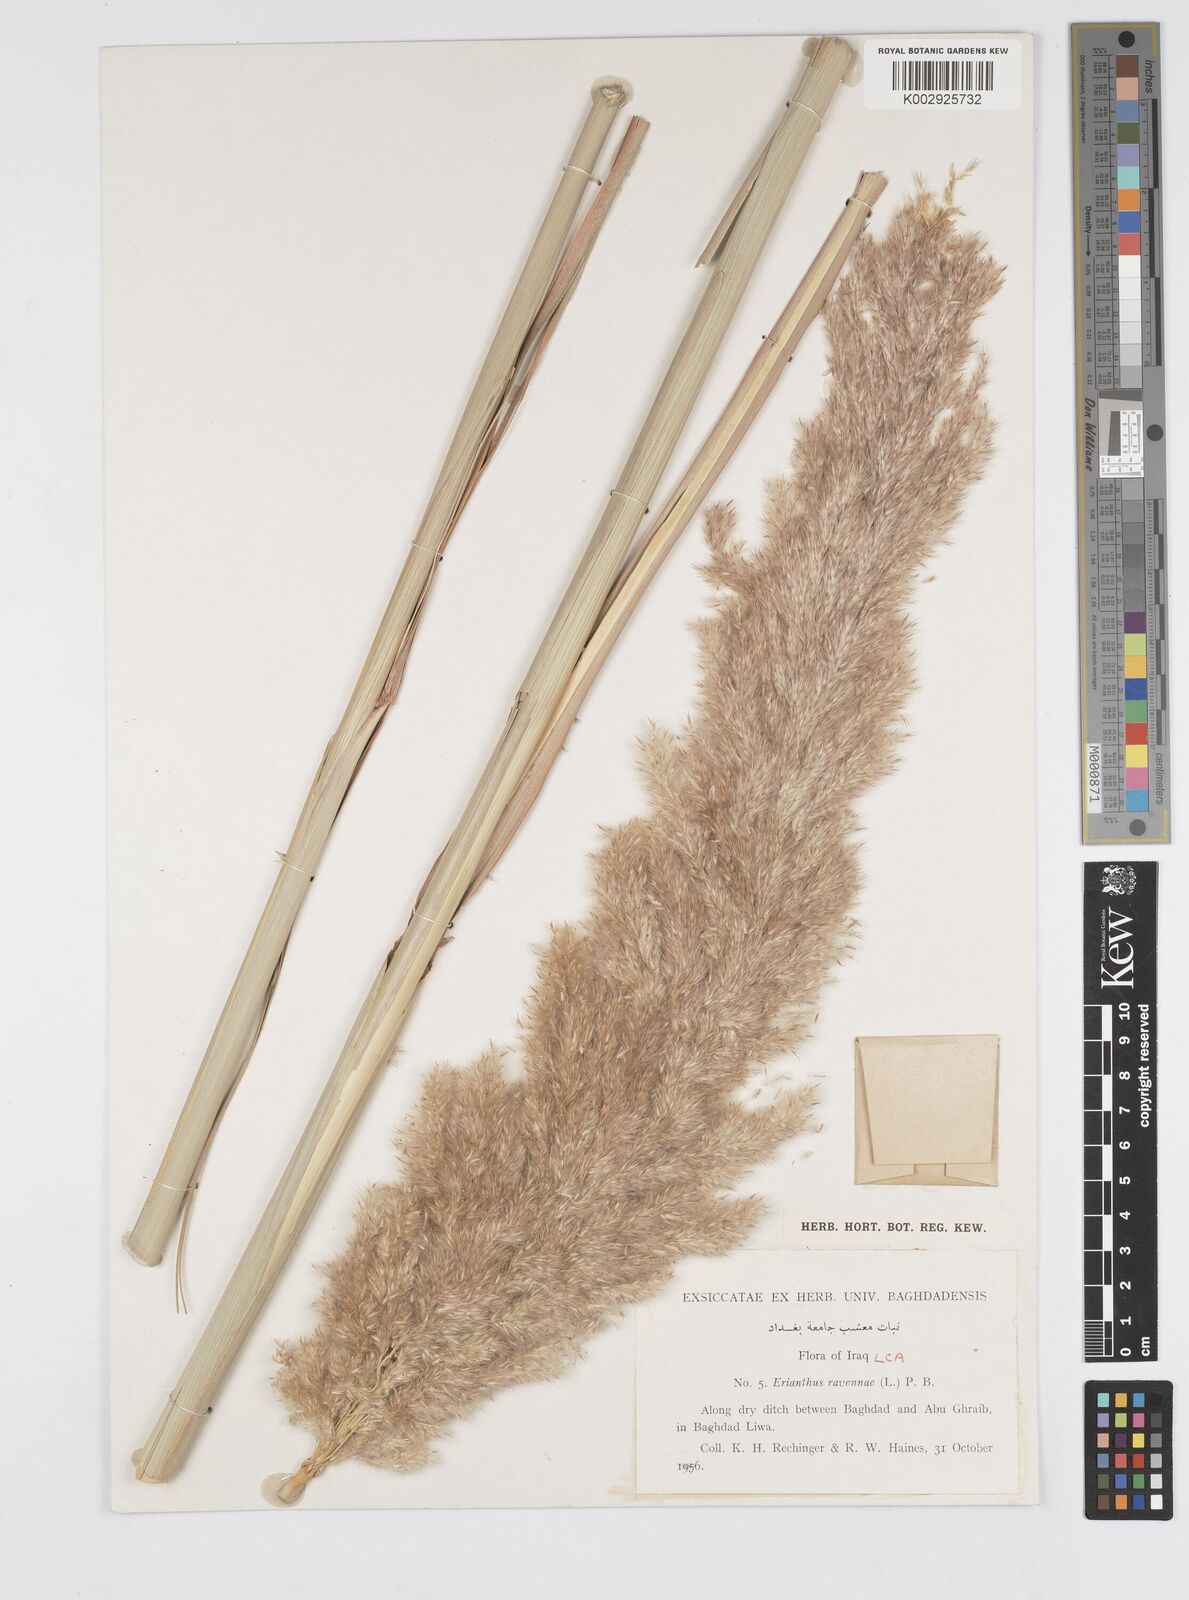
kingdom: Plantae
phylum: Tracheophyta
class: Liliopsida
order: Poales
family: Poaceae
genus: Tripidium
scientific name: Tripidium ravennae
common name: Ravenna grass
